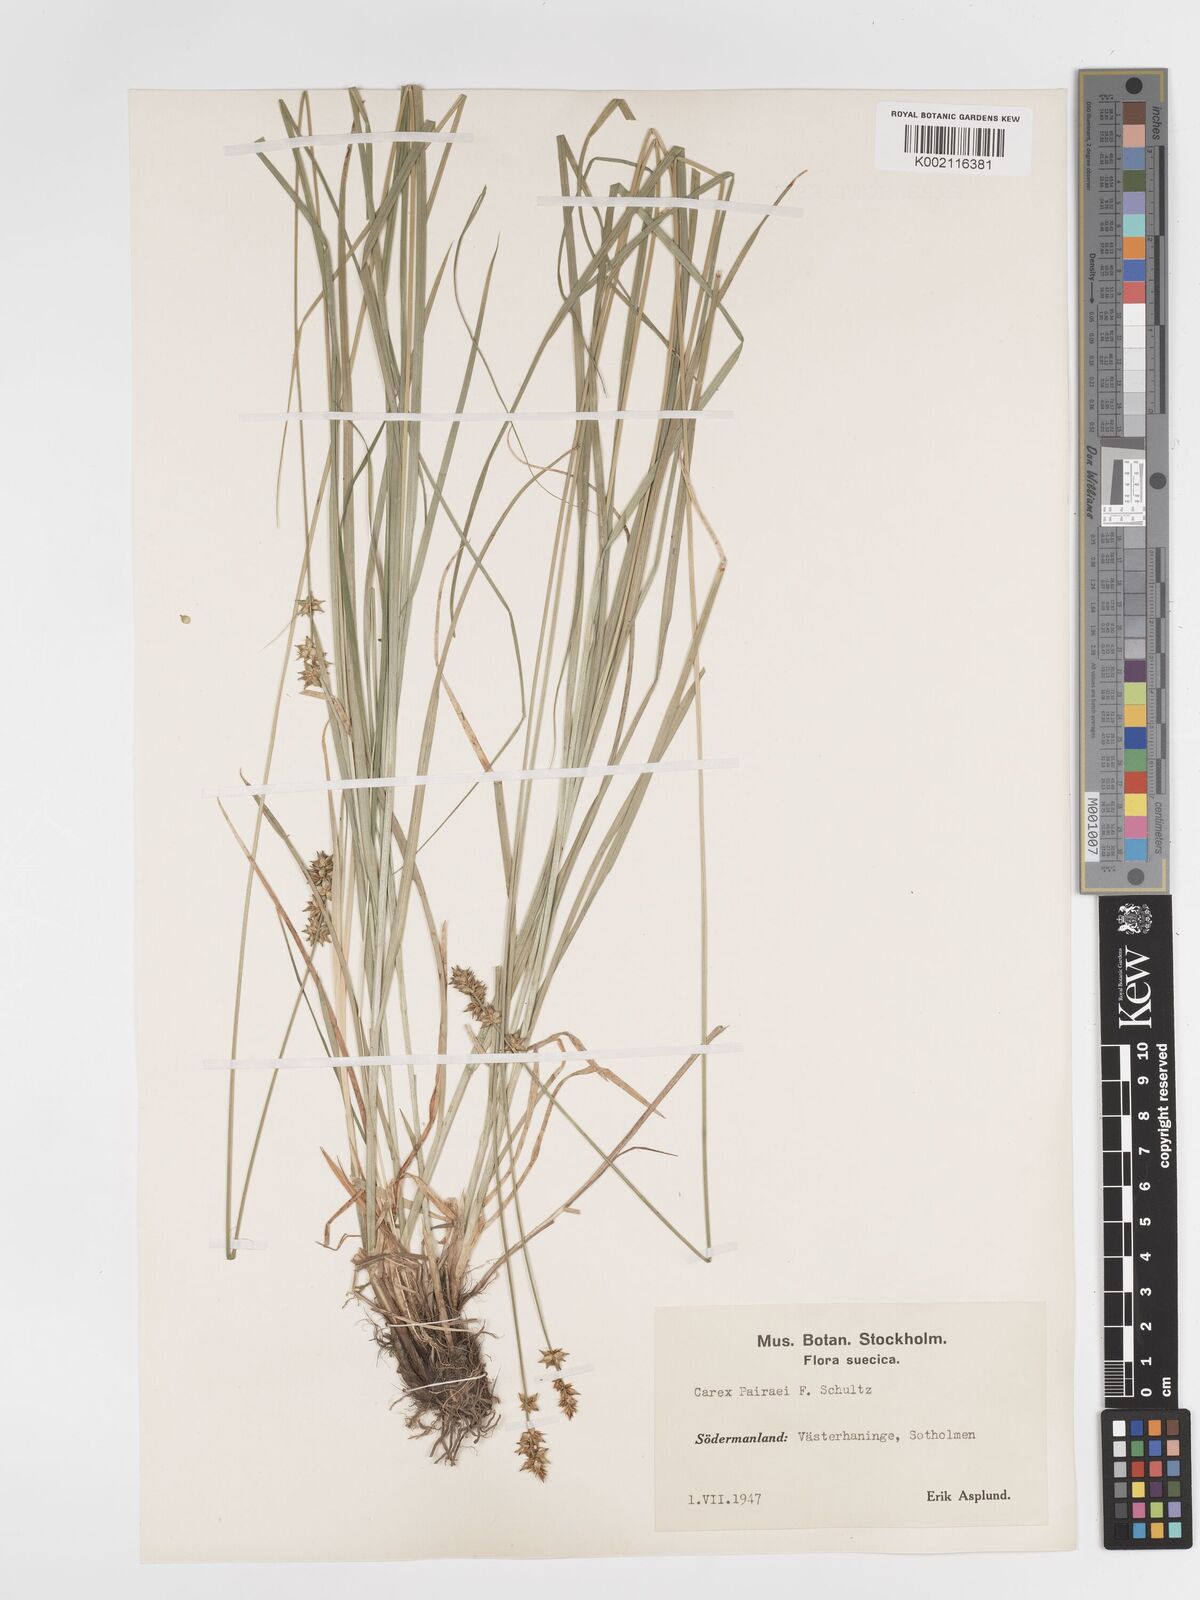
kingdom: Plantae
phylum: Tracheophyta
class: Liliopsida
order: Poales
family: Cyperaceae
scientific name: Cyperaceae
